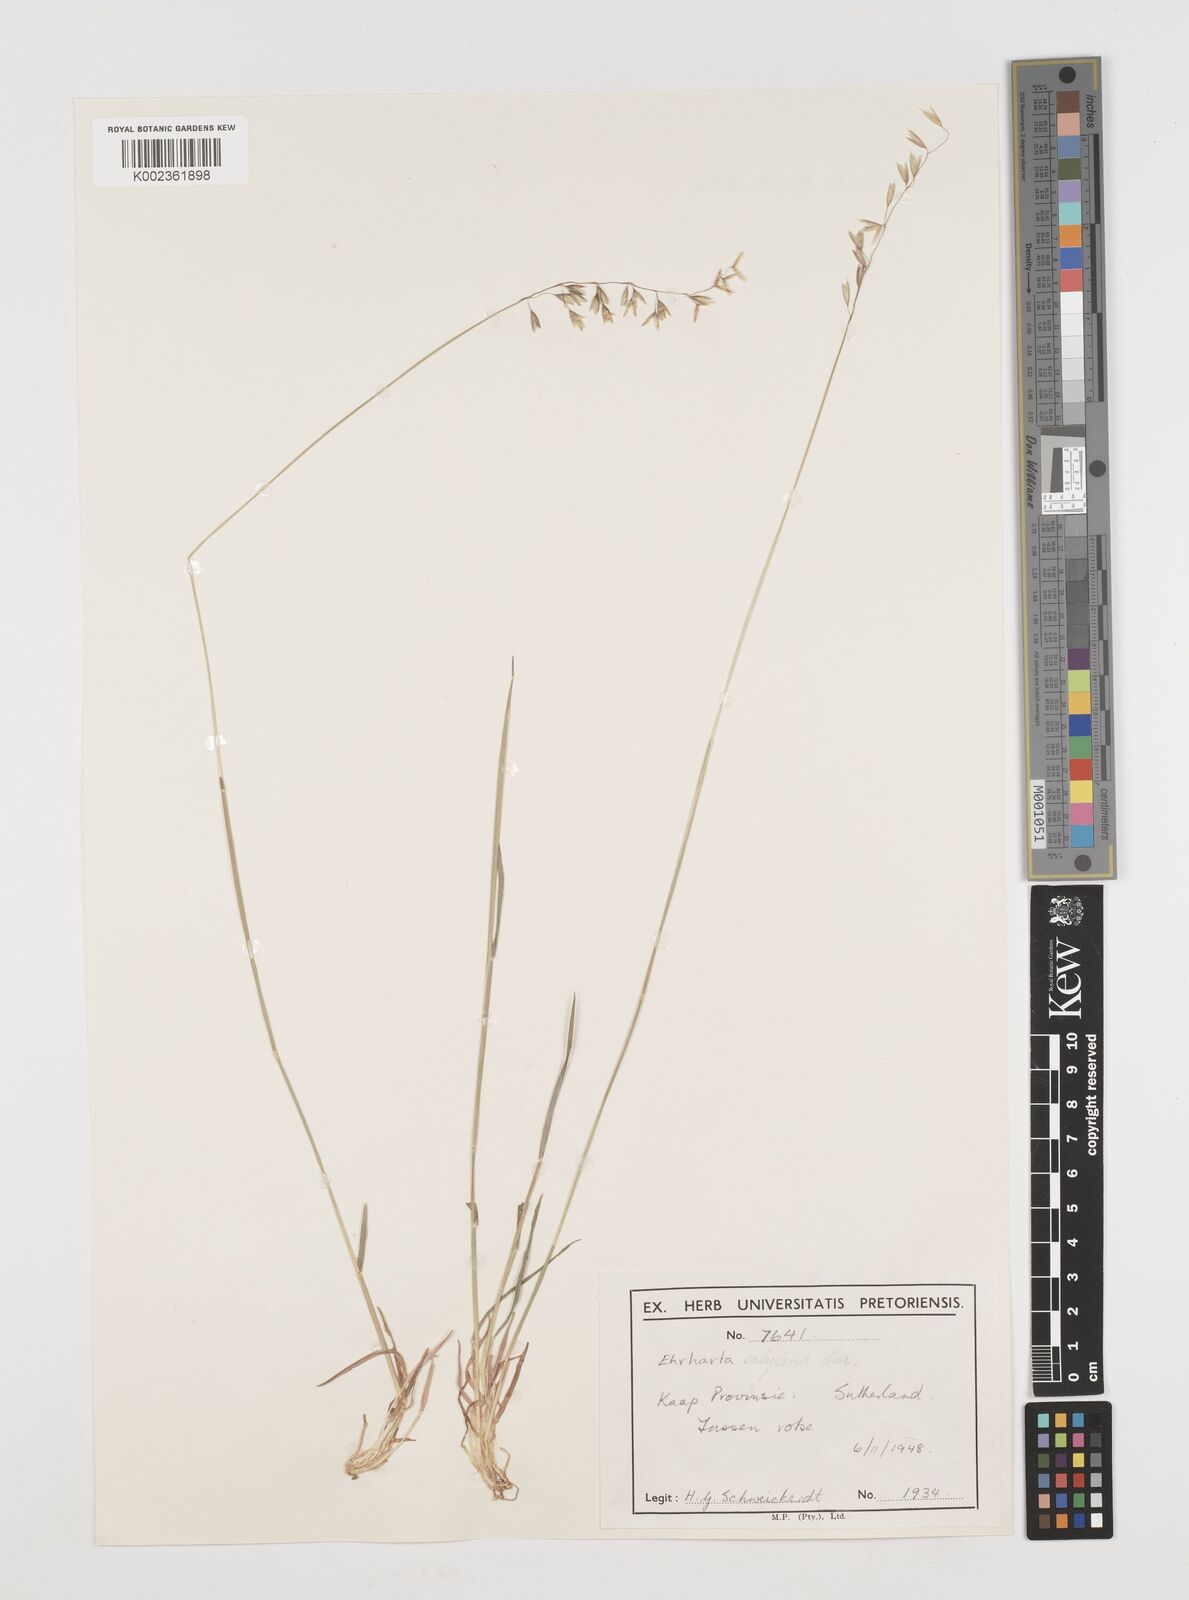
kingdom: Plantae
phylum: Tracheophyta
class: Liliopsida
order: Poales
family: Poaceae
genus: Ehrharta
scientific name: Ehrharta calycina
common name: Perennial veldtgrass
